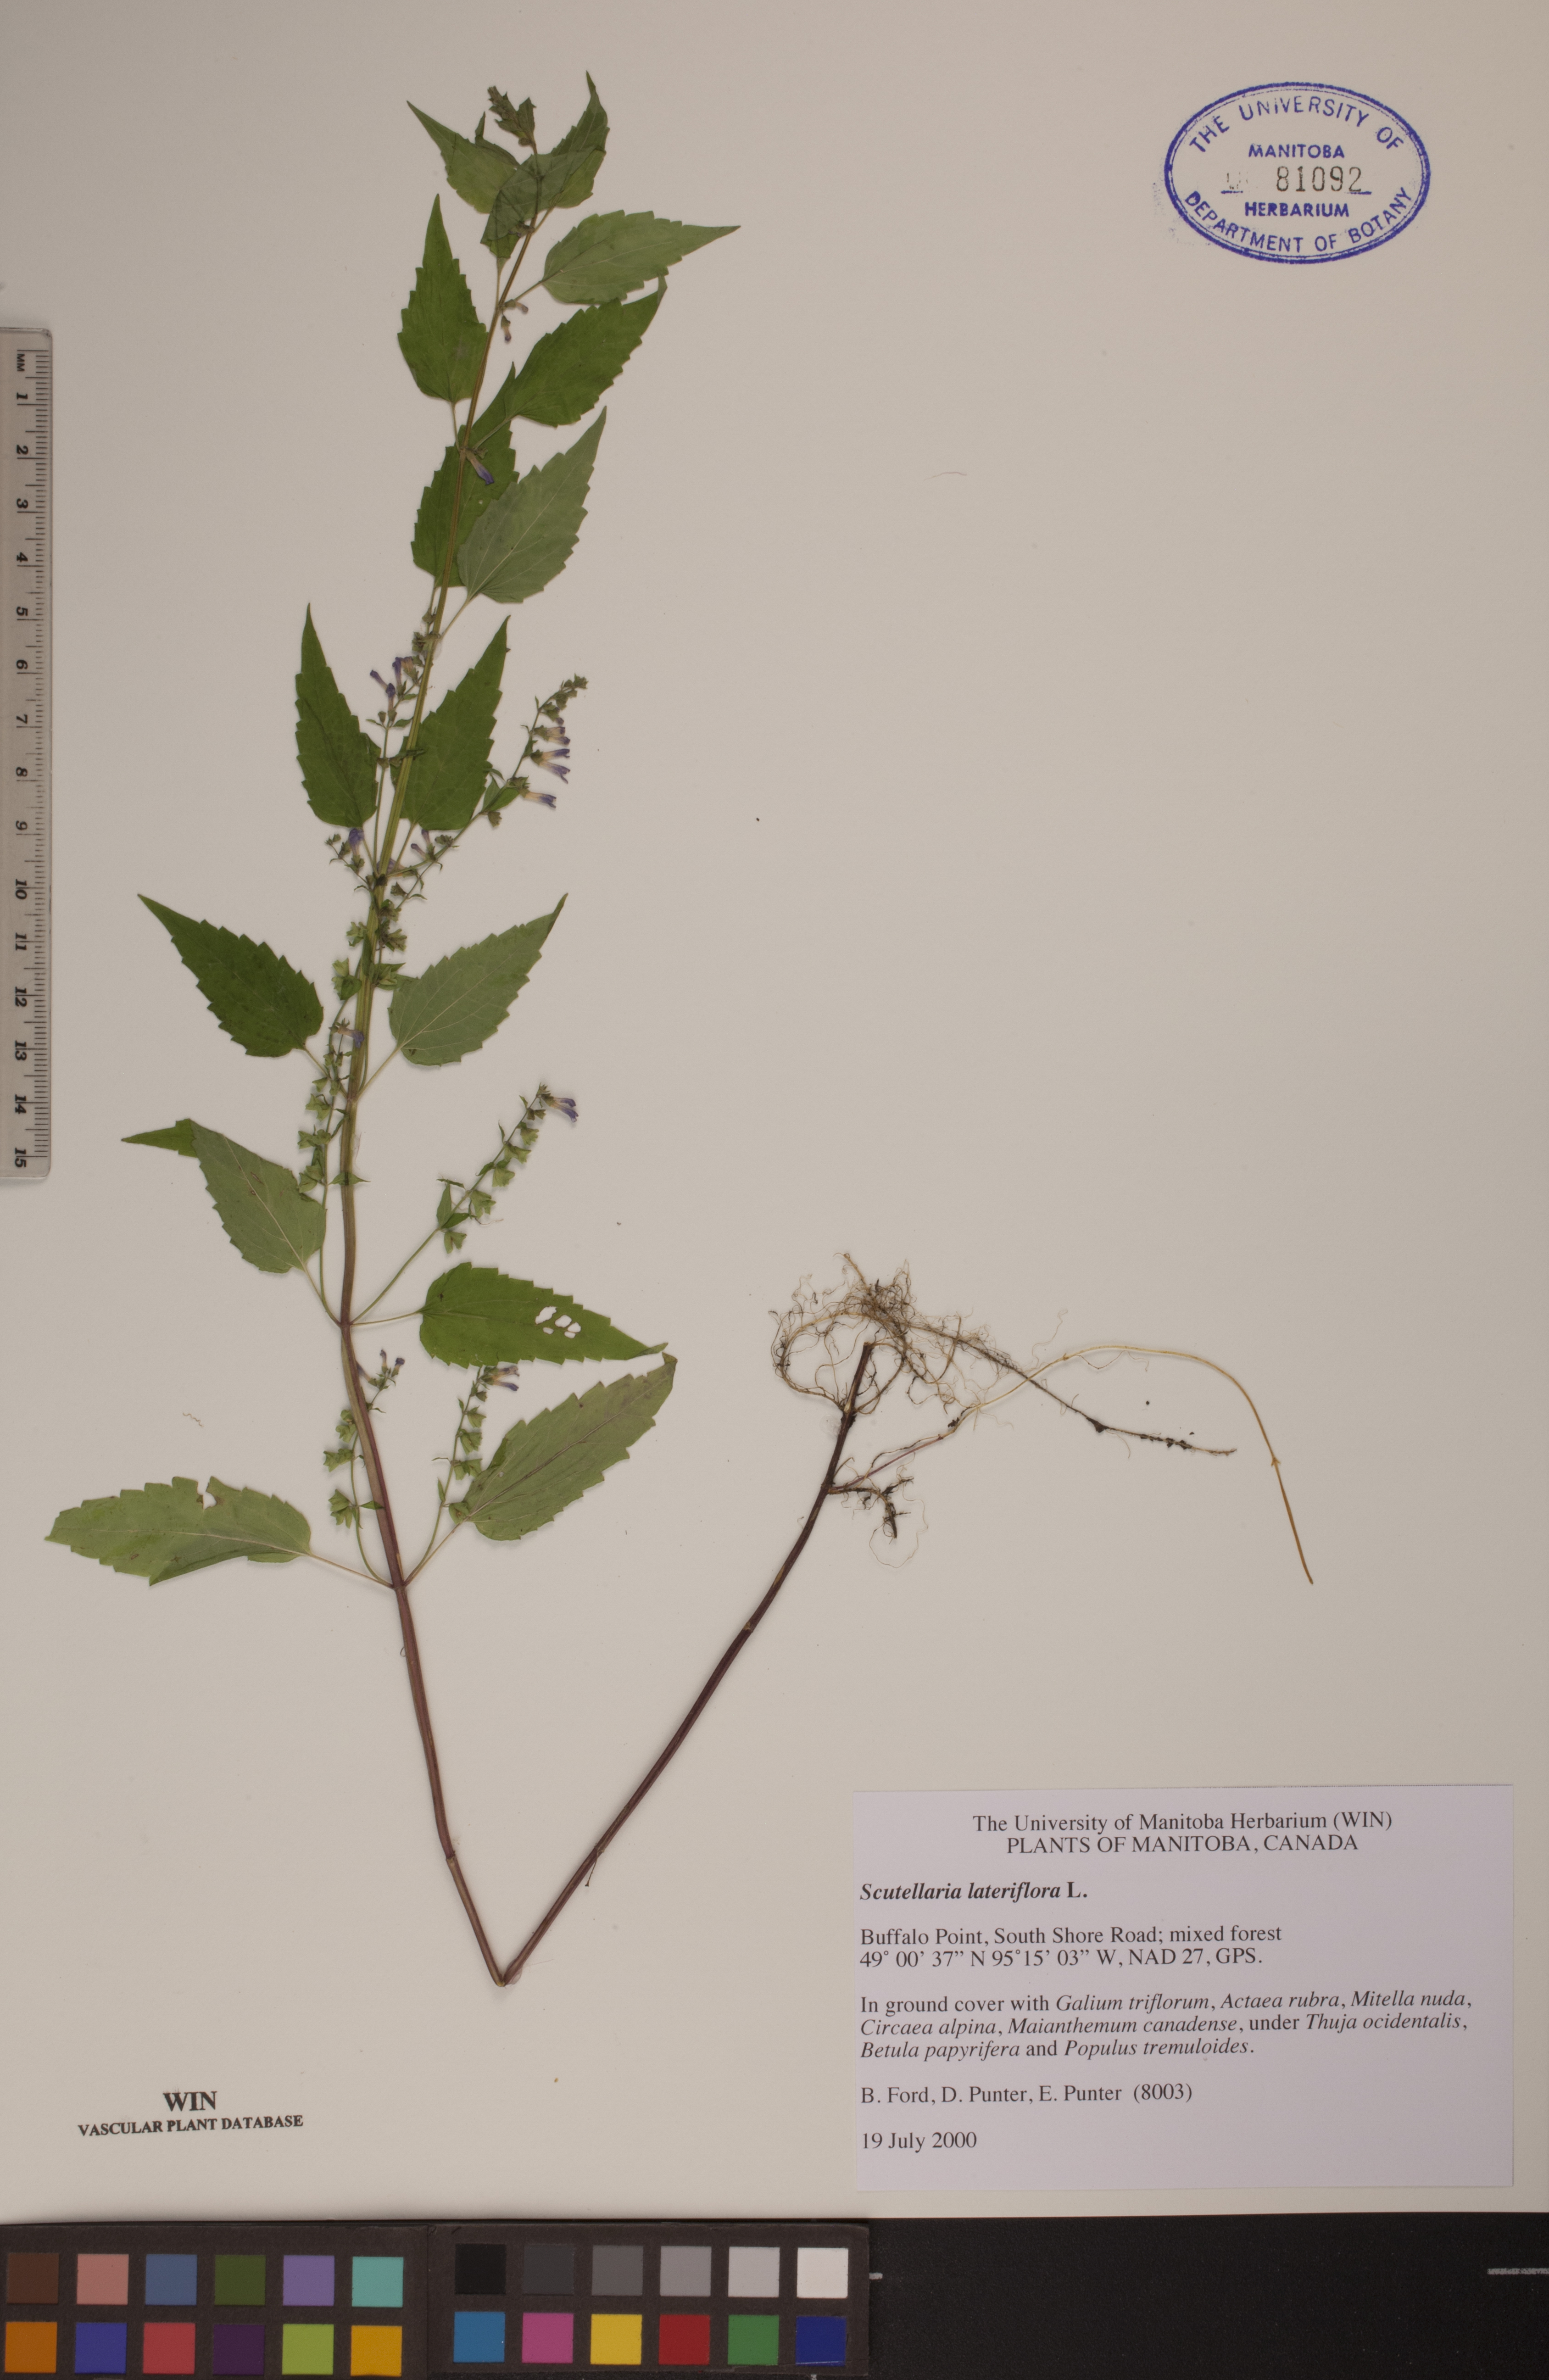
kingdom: Plantae
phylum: Tracheophyta
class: Magnoliopsida
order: Lamiales
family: Lamiaceae
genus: Scutellaria
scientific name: Scutellaria lateriflora
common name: Blue skullcap
